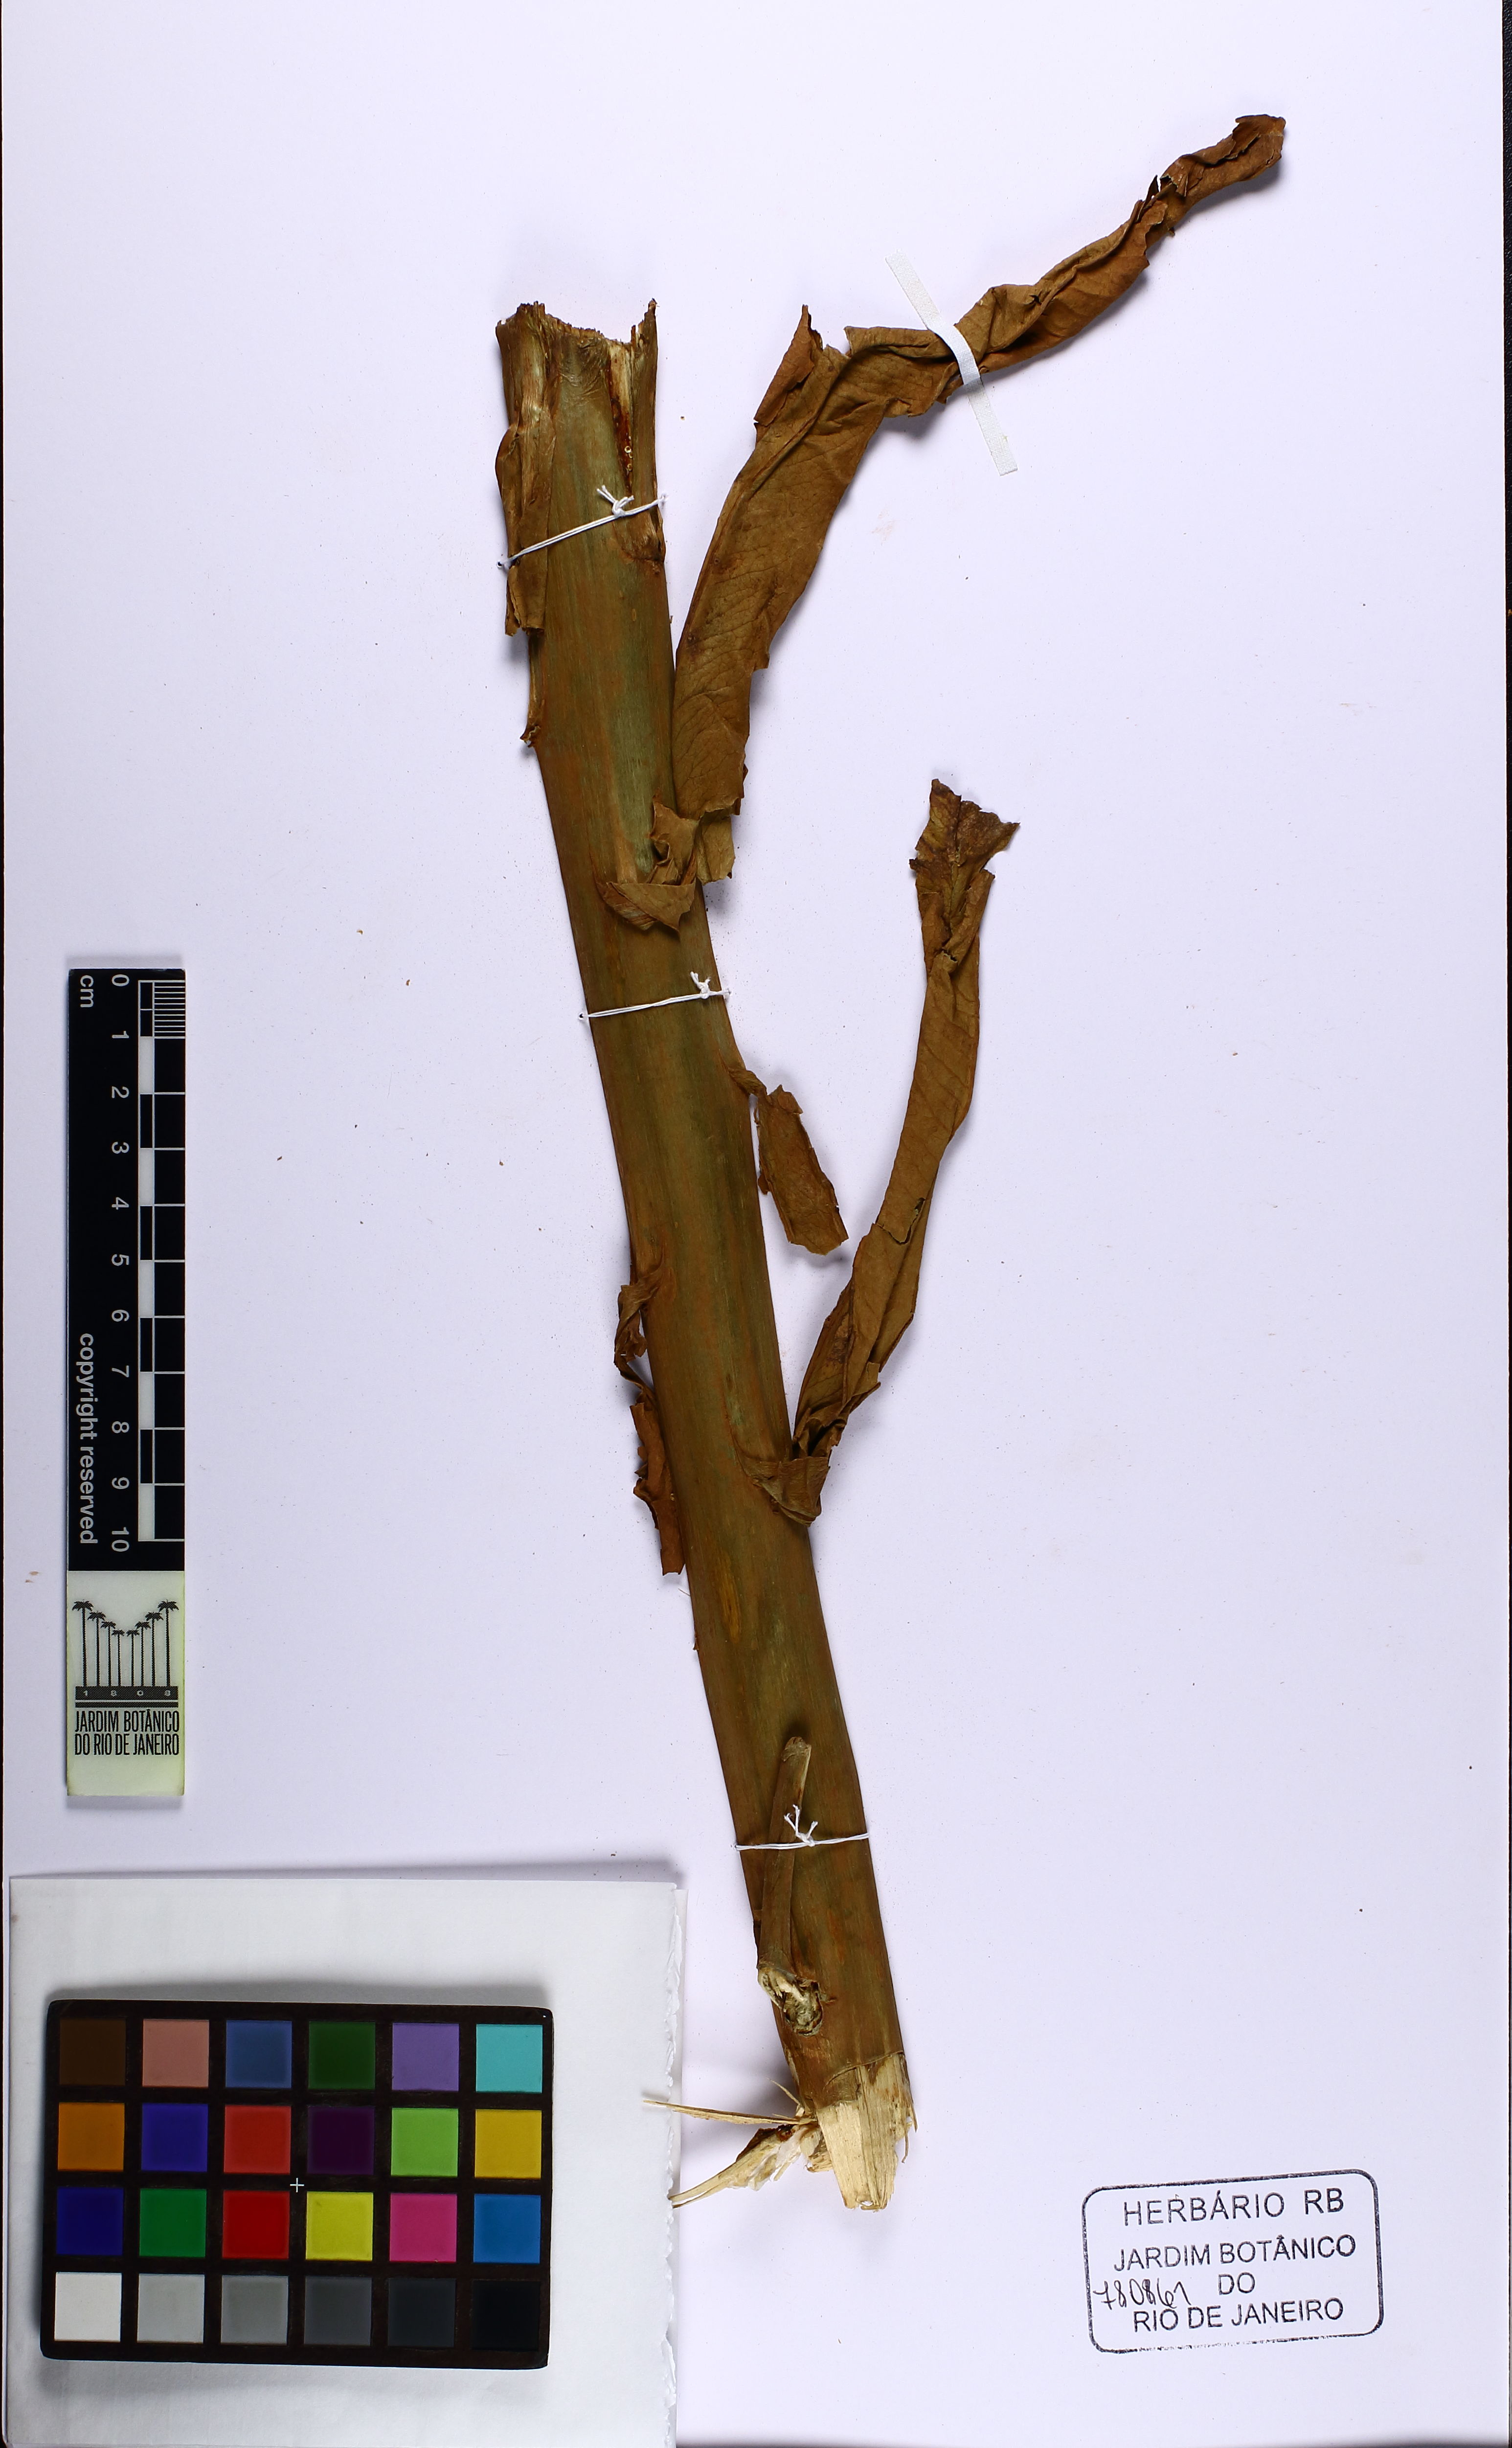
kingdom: Plantae
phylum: Tracheophyta
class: Magnoliopsida
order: Asterales
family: Campanulaceae
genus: Lobelia
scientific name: Lobelia organensis
